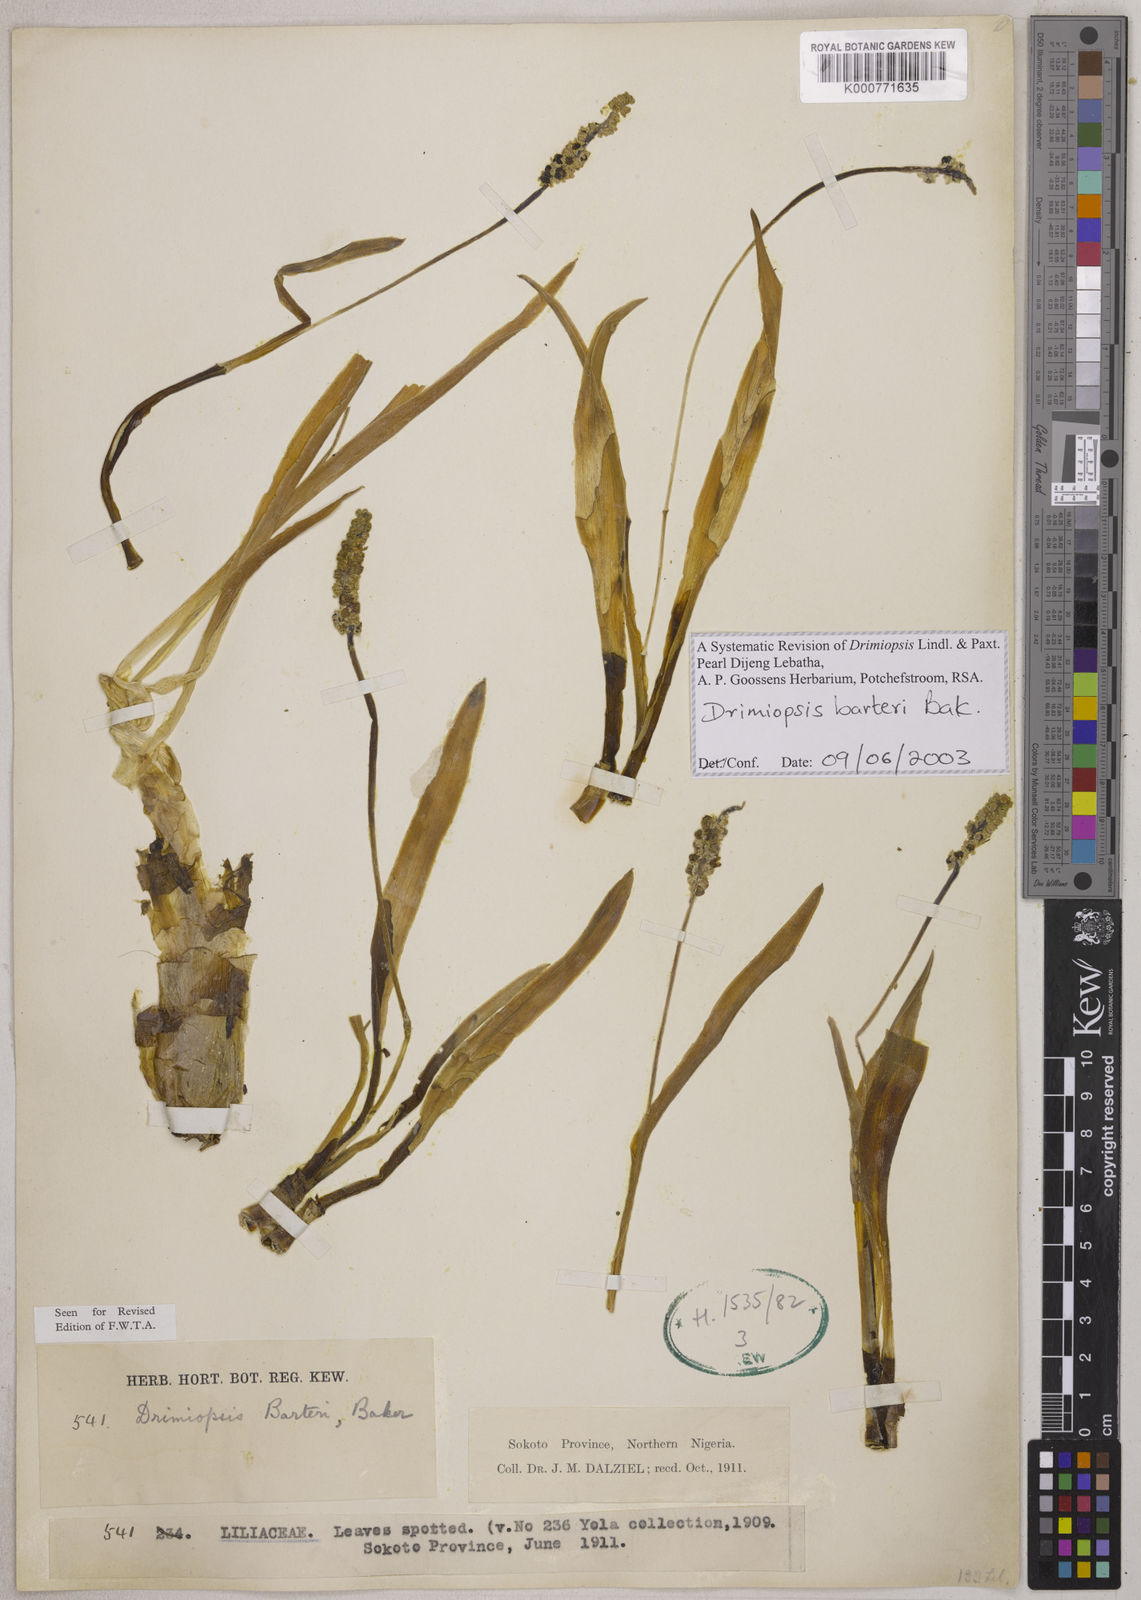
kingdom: Plantae
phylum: Tracheophyta
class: Liliopsida
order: Asparagales
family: Asparagaceae
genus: Drimiopsis
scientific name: Drimiopsis barteri
